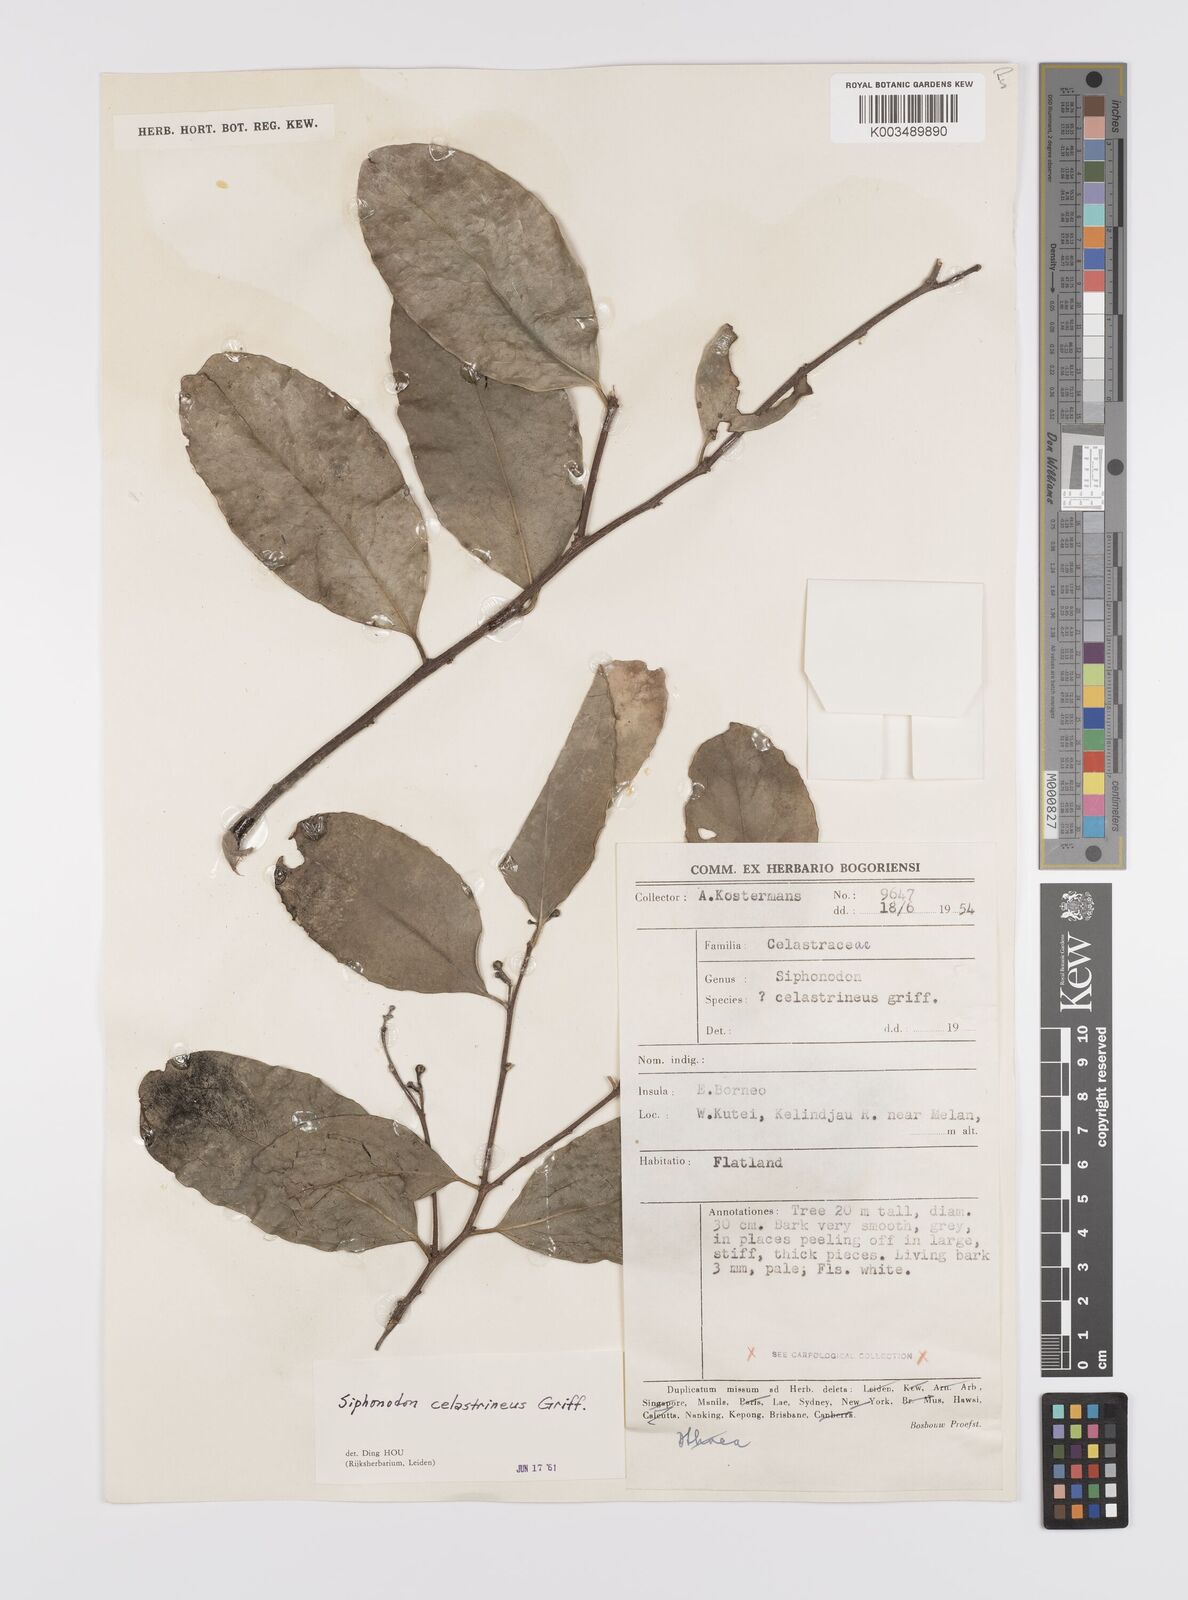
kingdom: Plantae
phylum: Tracheophyta
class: Magnoliopsida
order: Celastrales
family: Celastraceae
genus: Siphonodon
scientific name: Siphonodon celastrineus
